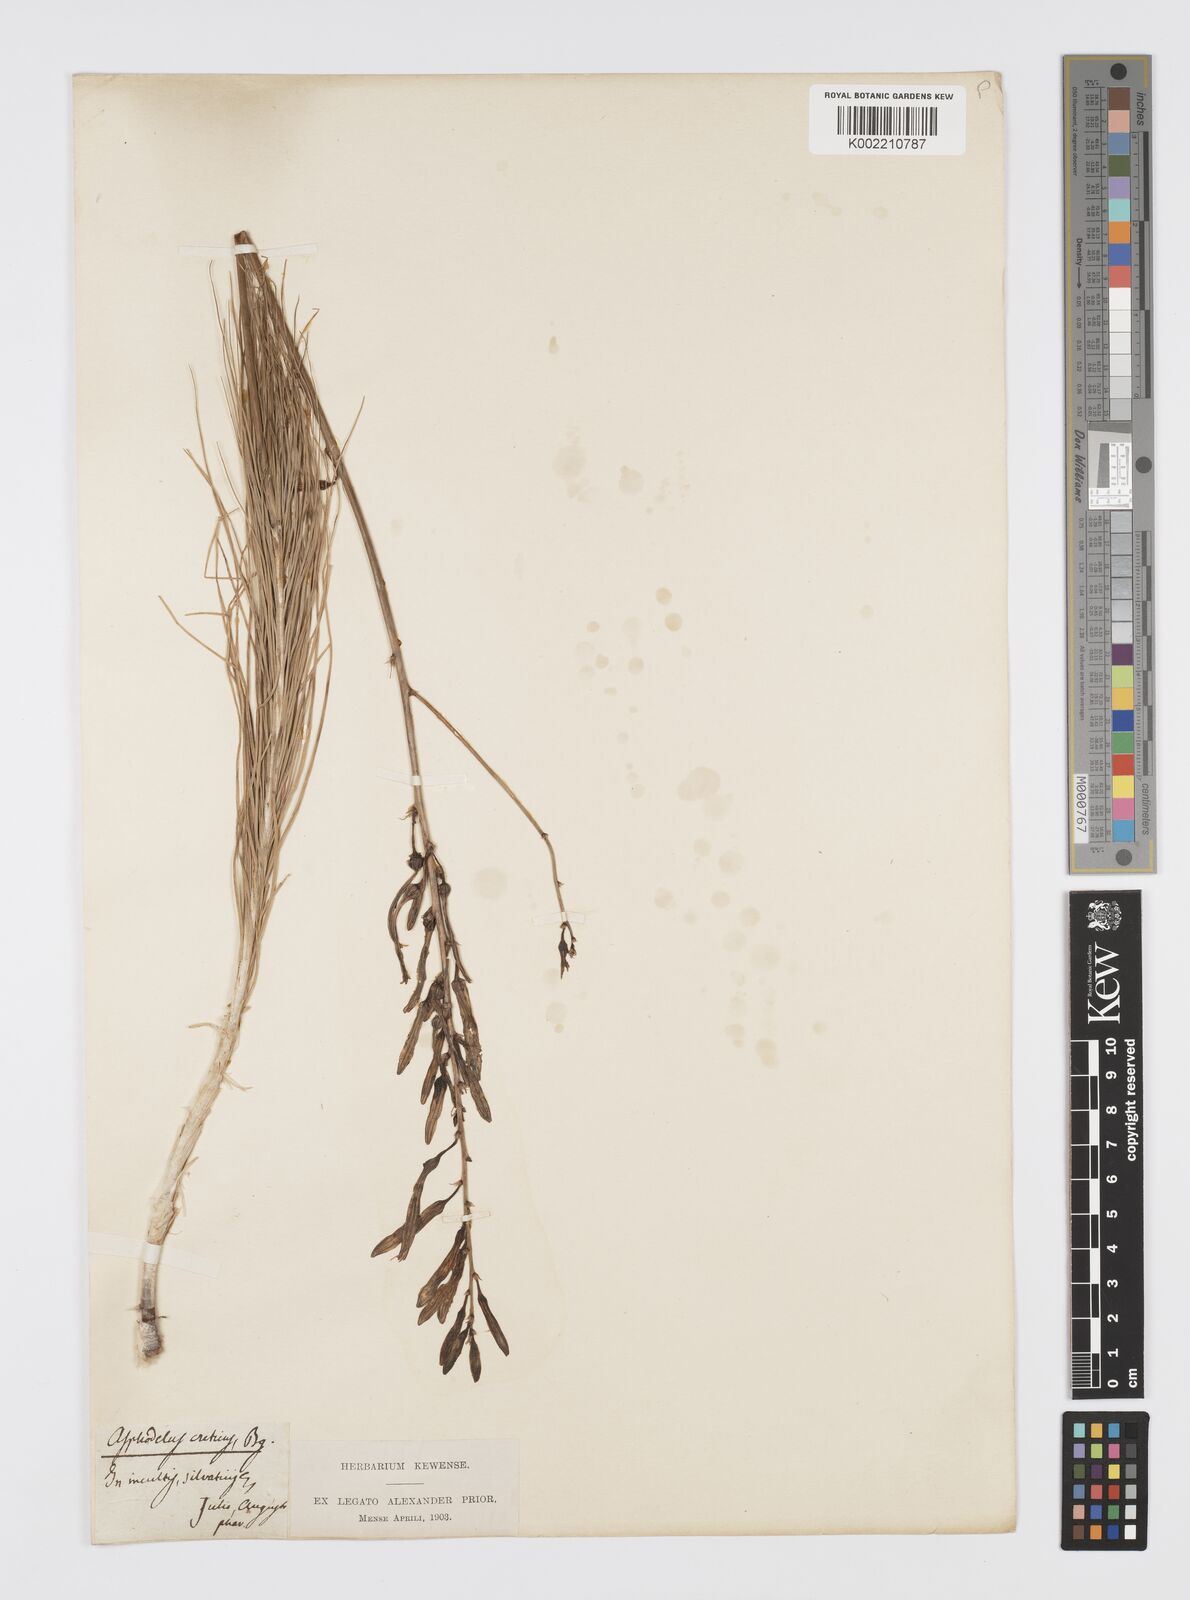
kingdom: Plantae
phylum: Tracheophyta
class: Liliopsida
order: Asparagales
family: Asphodelaceae
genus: Asphodeline
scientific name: Asphodeline
